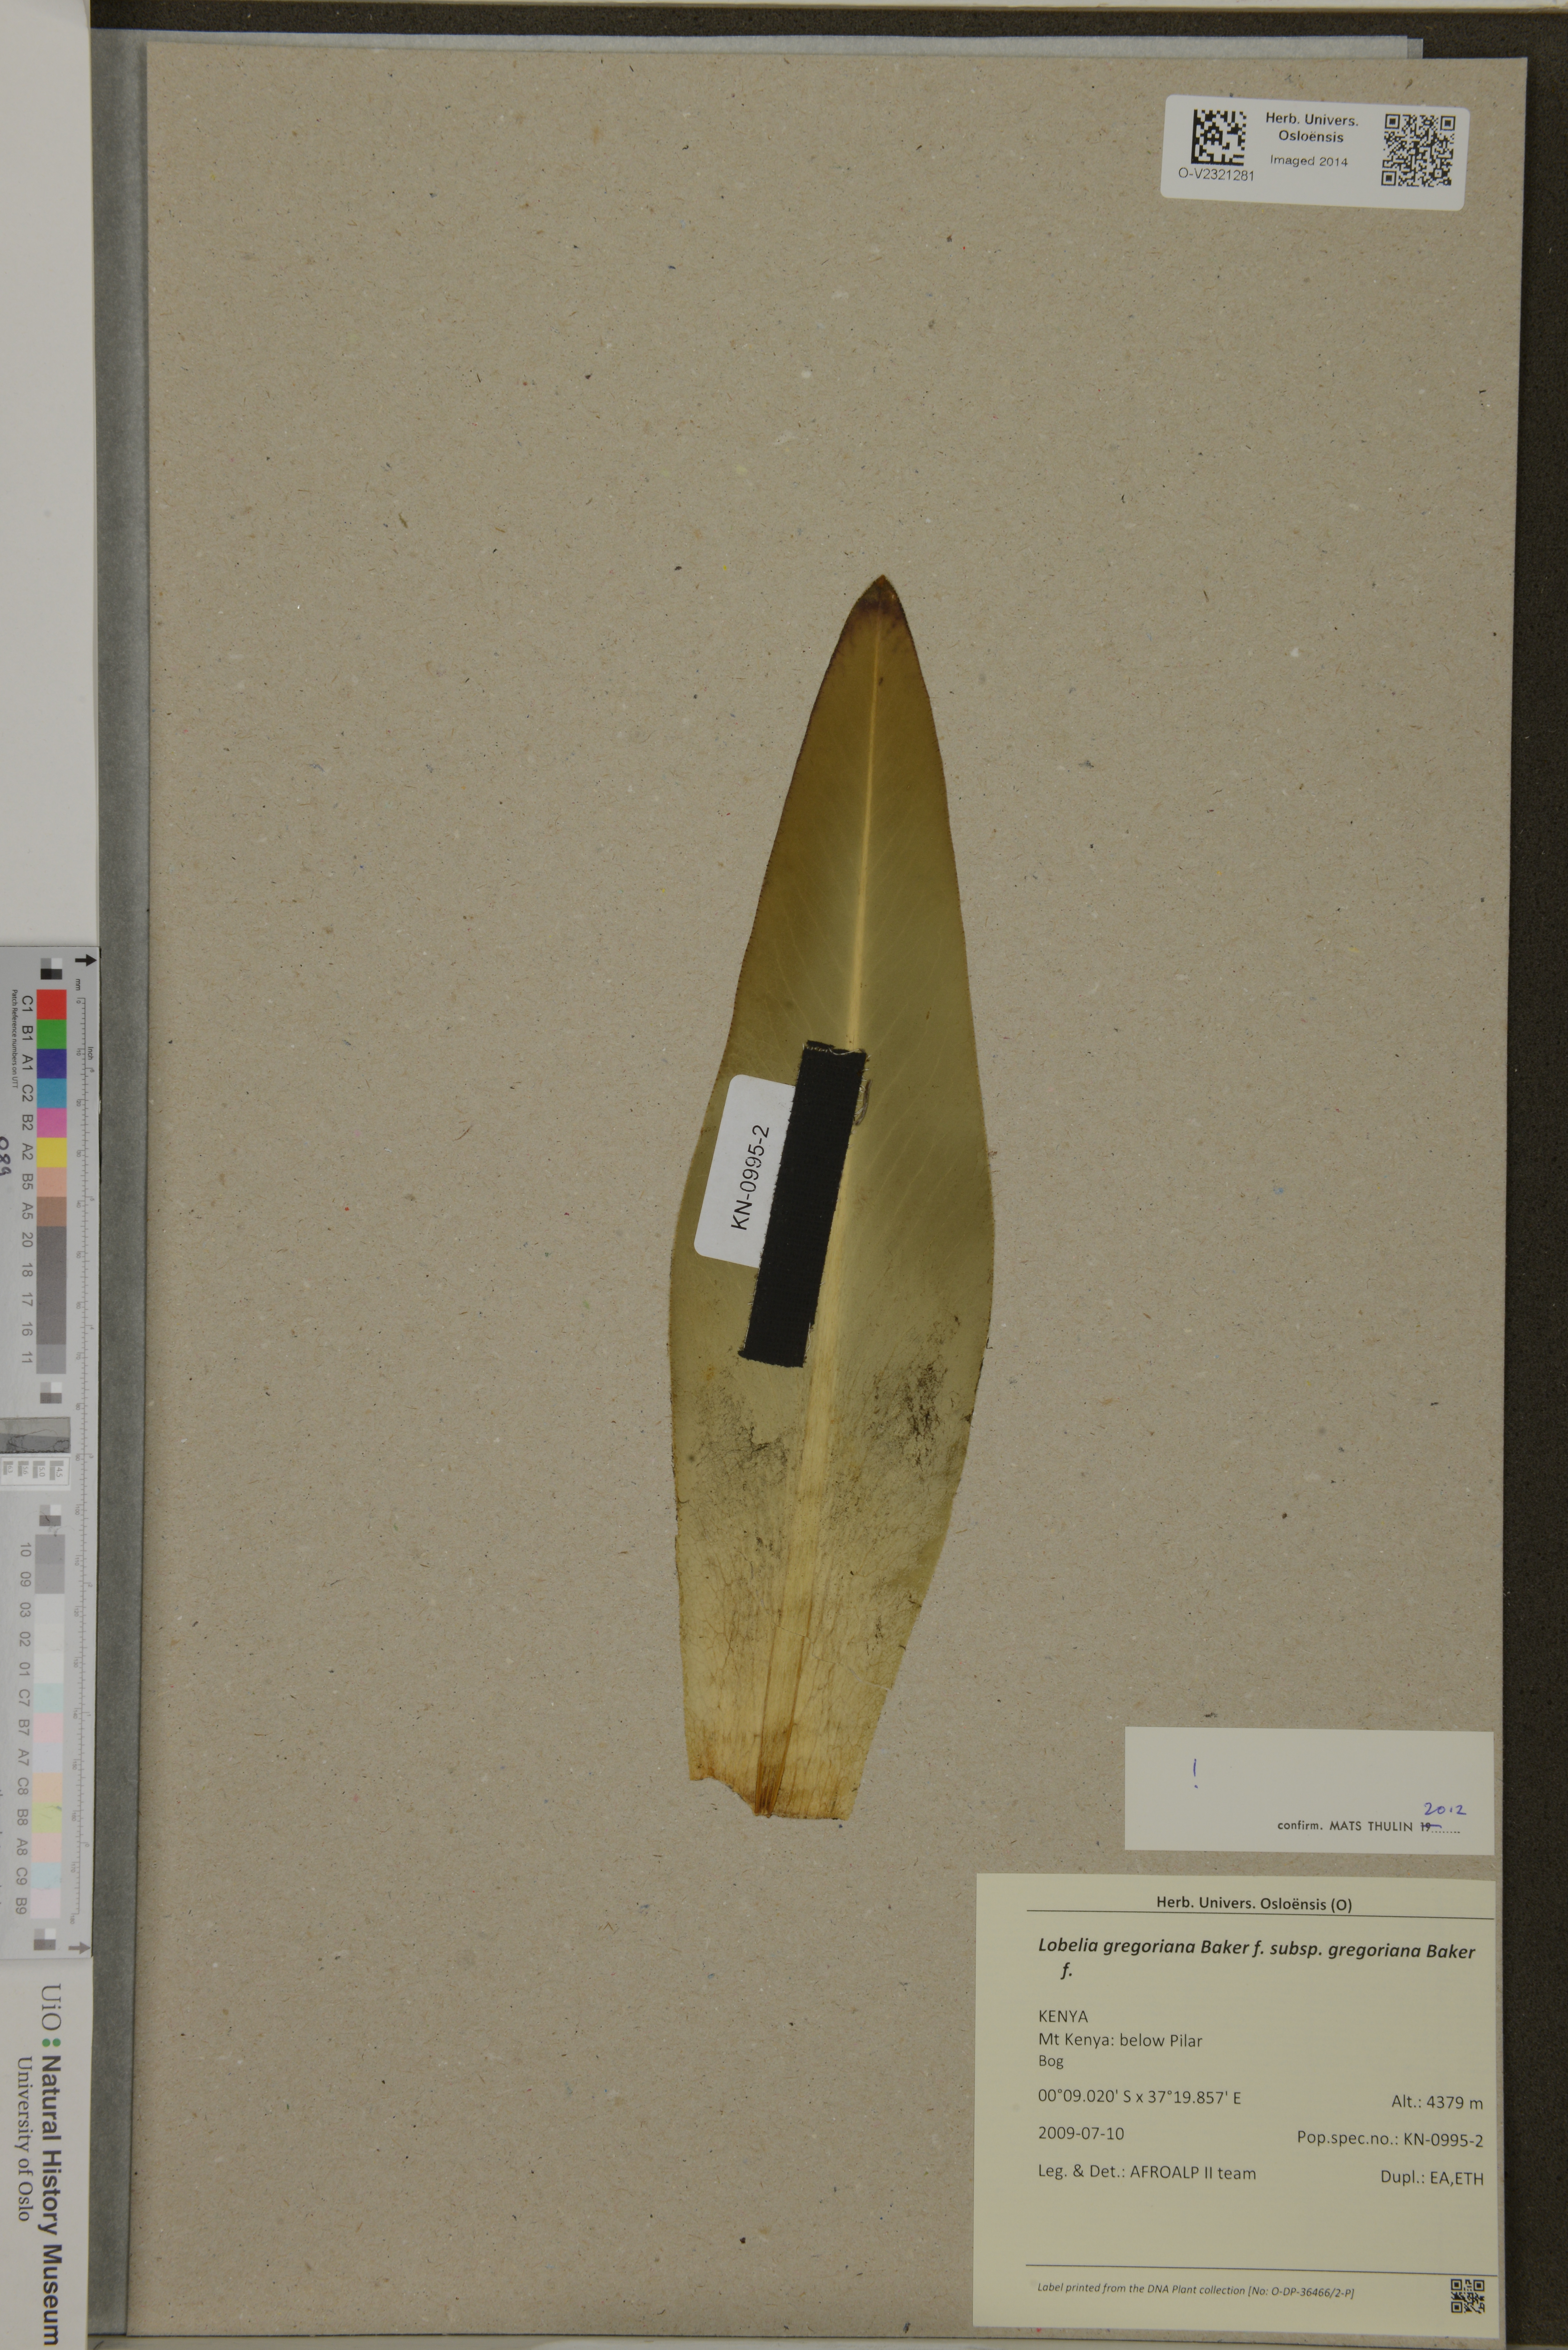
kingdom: Plantae
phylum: Tracheophyta
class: Magnoliopsida
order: Asterales
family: Campanulaceae
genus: Lobelia
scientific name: Lobelia gregoriana
